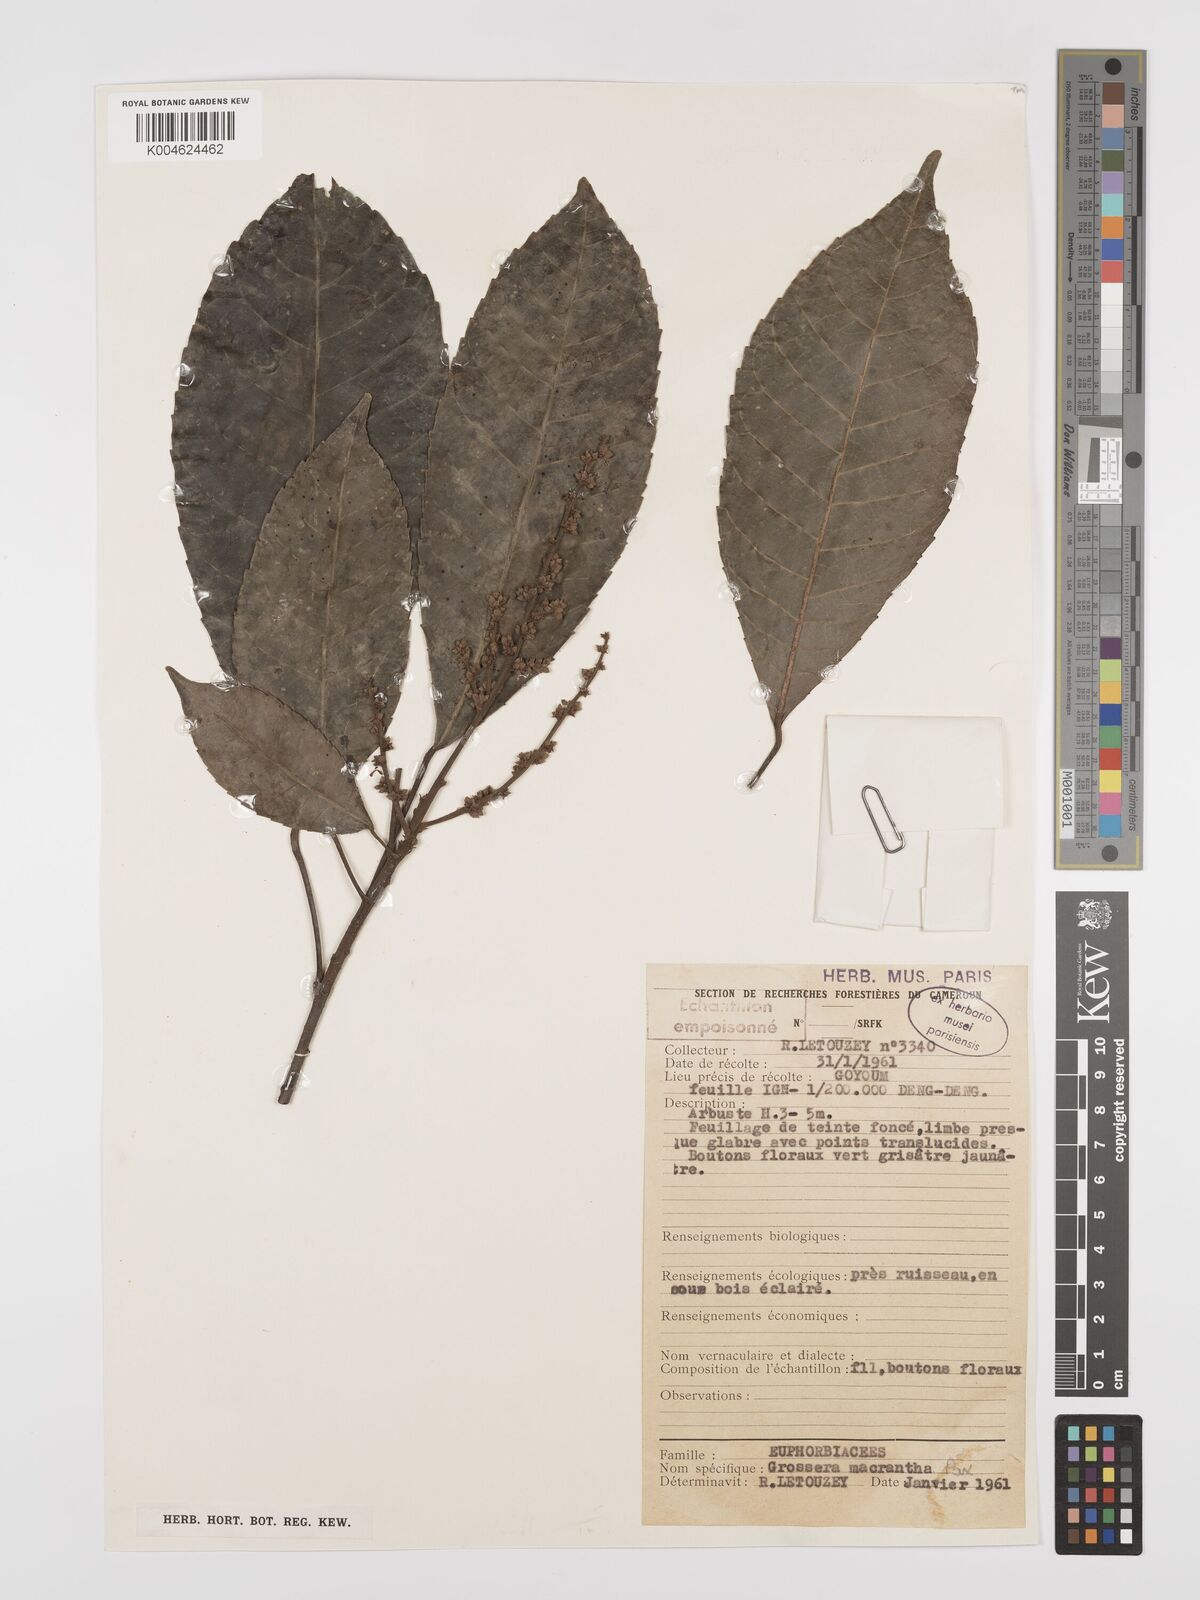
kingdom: Plantae
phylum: Tracheophyta
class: Magnoliopsida
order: Malpighiales
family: Euphorbiaceae
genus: Grossera
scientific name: Grossera macrantha
